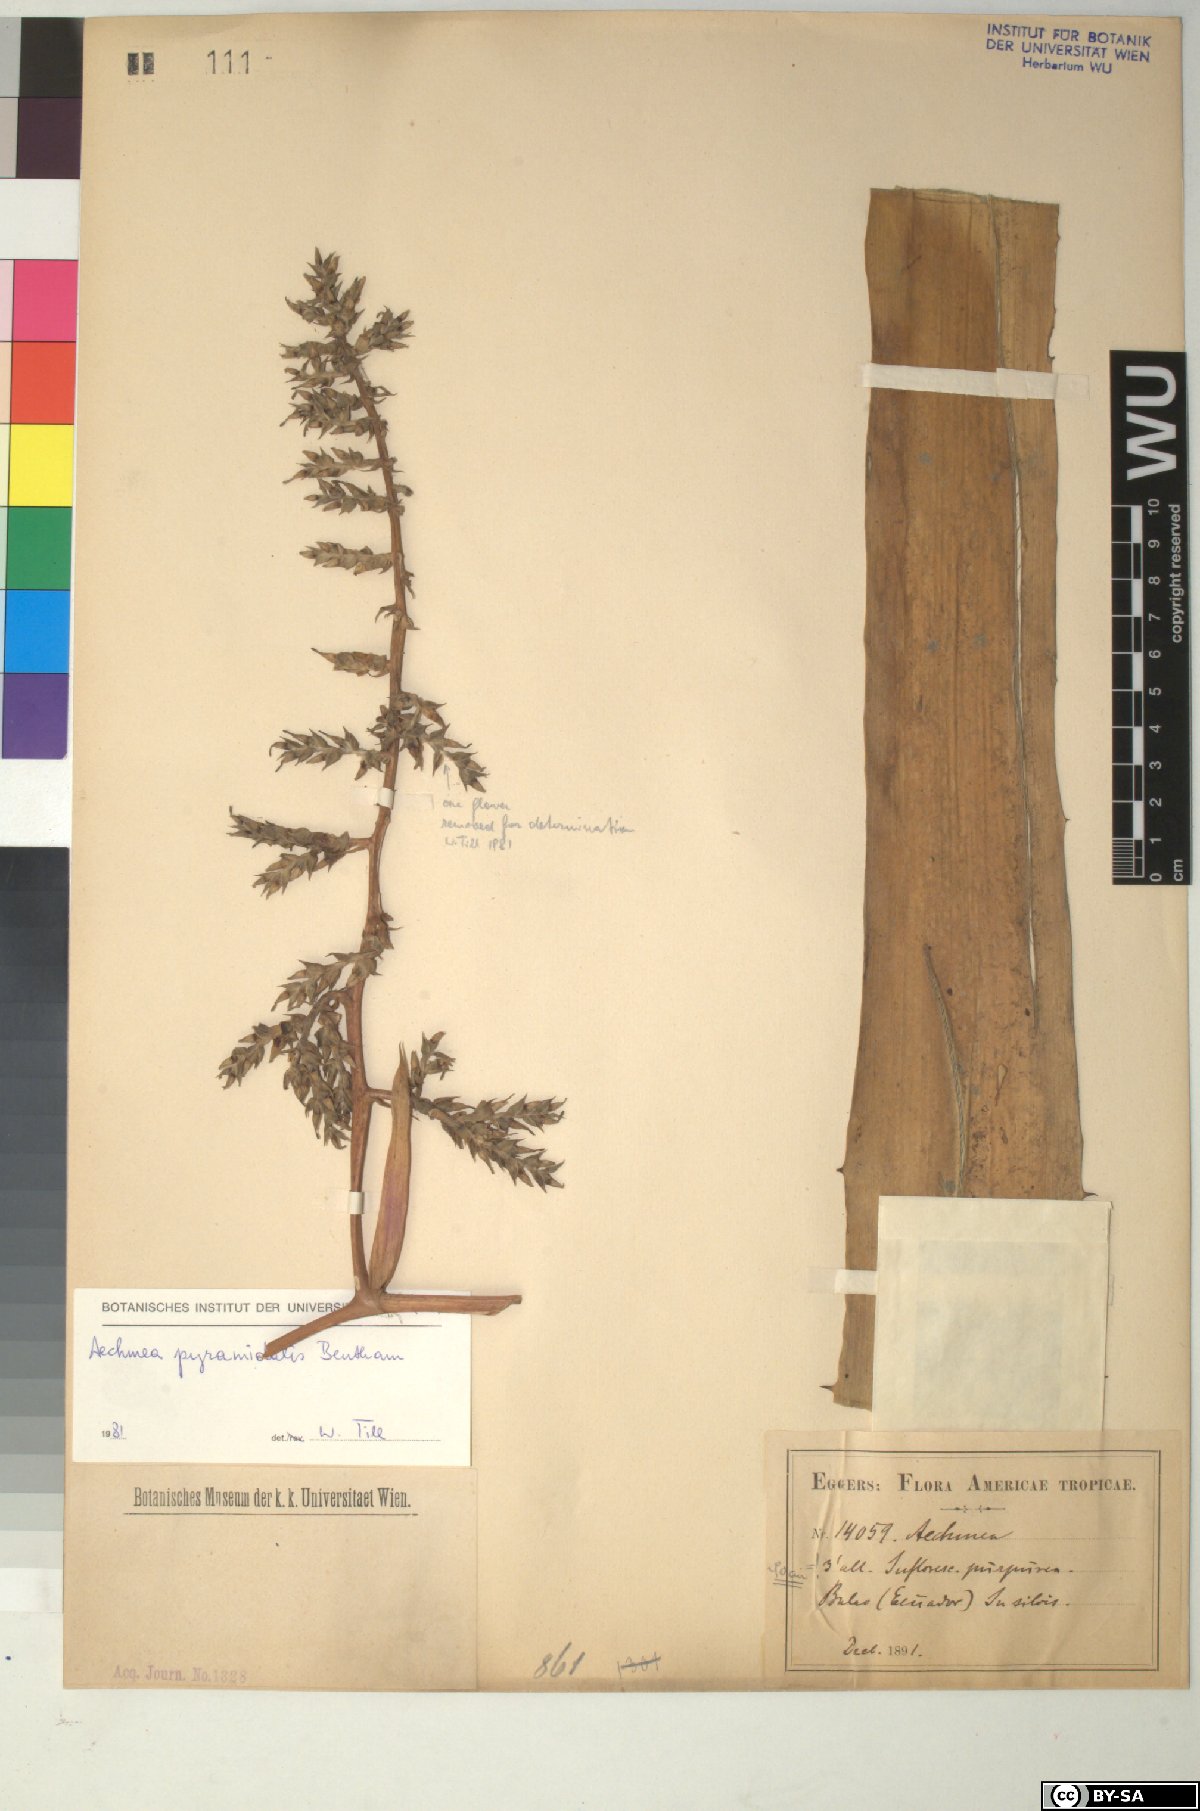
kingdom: Plantae
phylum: Tracheophyta
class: Liliopsida
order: Poales
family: Bromeliaceae
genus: Aechmea
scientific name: Aechmea
